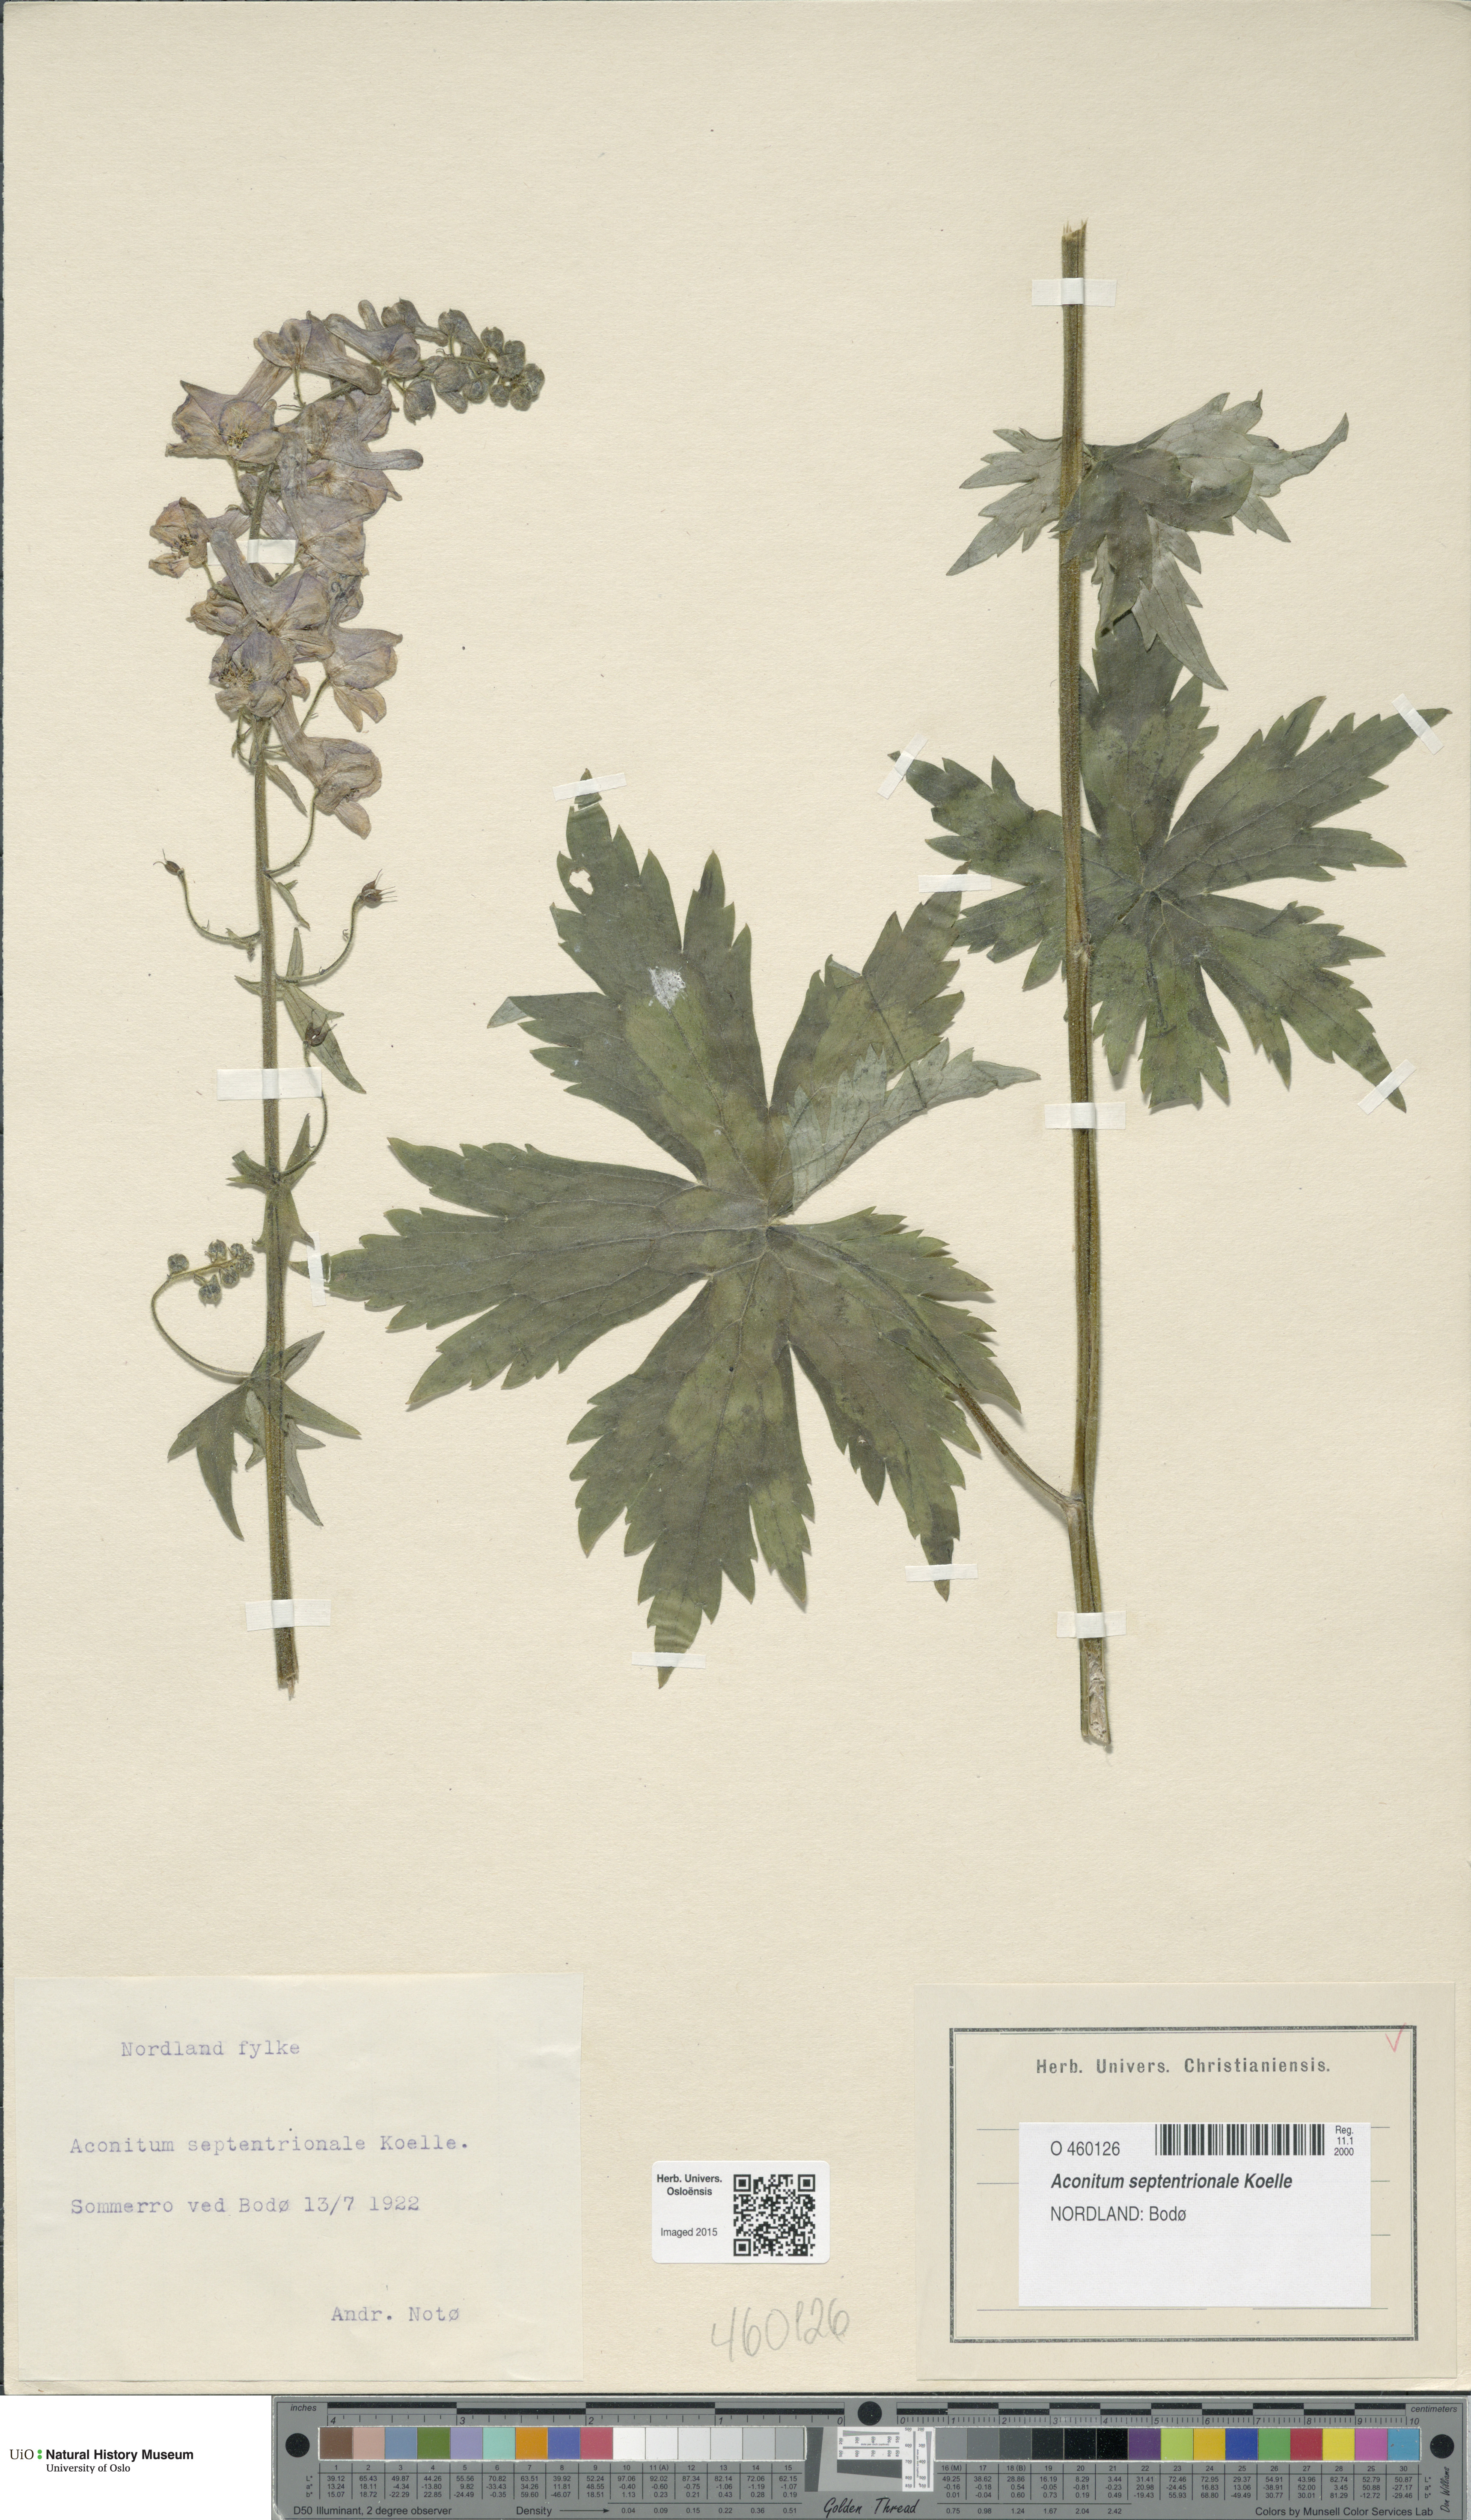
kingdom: Plantae
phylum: Tracheophyta
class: Magnoliopsida
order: Ranunculales
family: Ranunculaceae
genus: Aconitum
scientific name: Aconitum septentrionale
